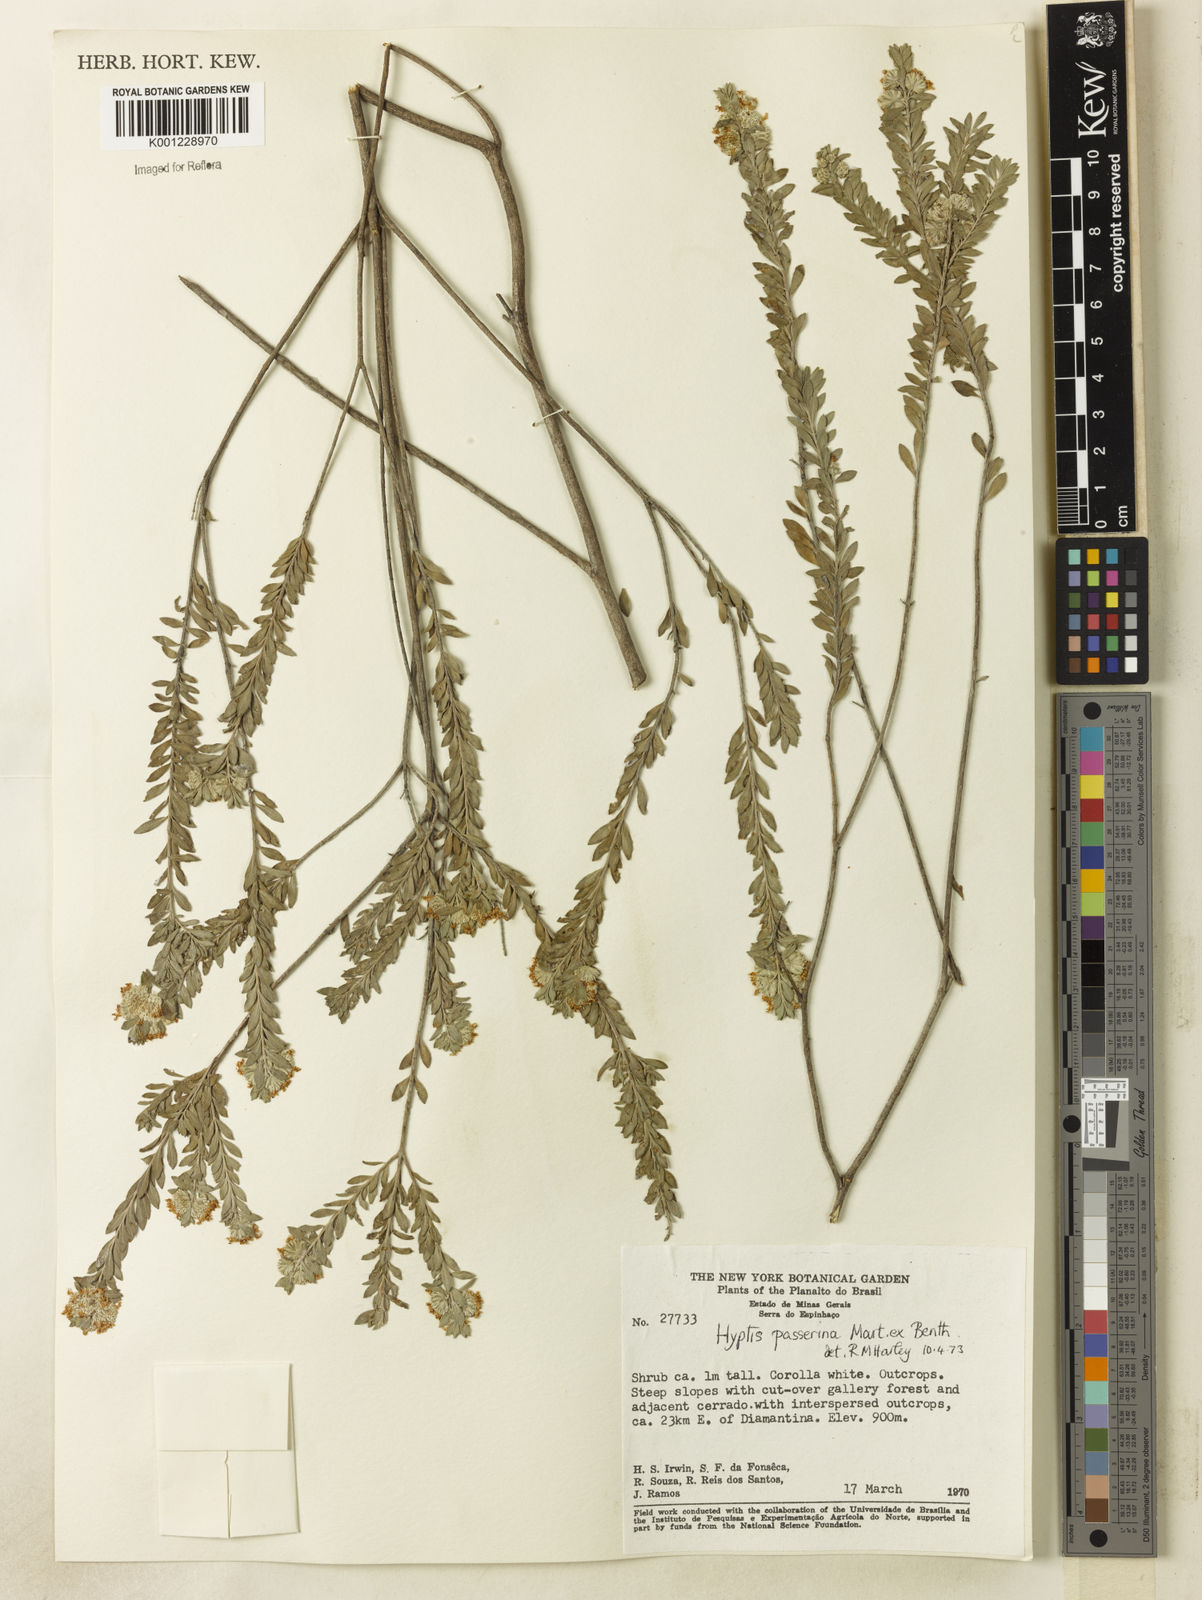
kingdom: Plantae
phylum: Tracheophyta
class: Magnoliopsida
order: Lamiales
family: Lamiaceae
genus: Hyptis
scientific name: Hyptis passerina
